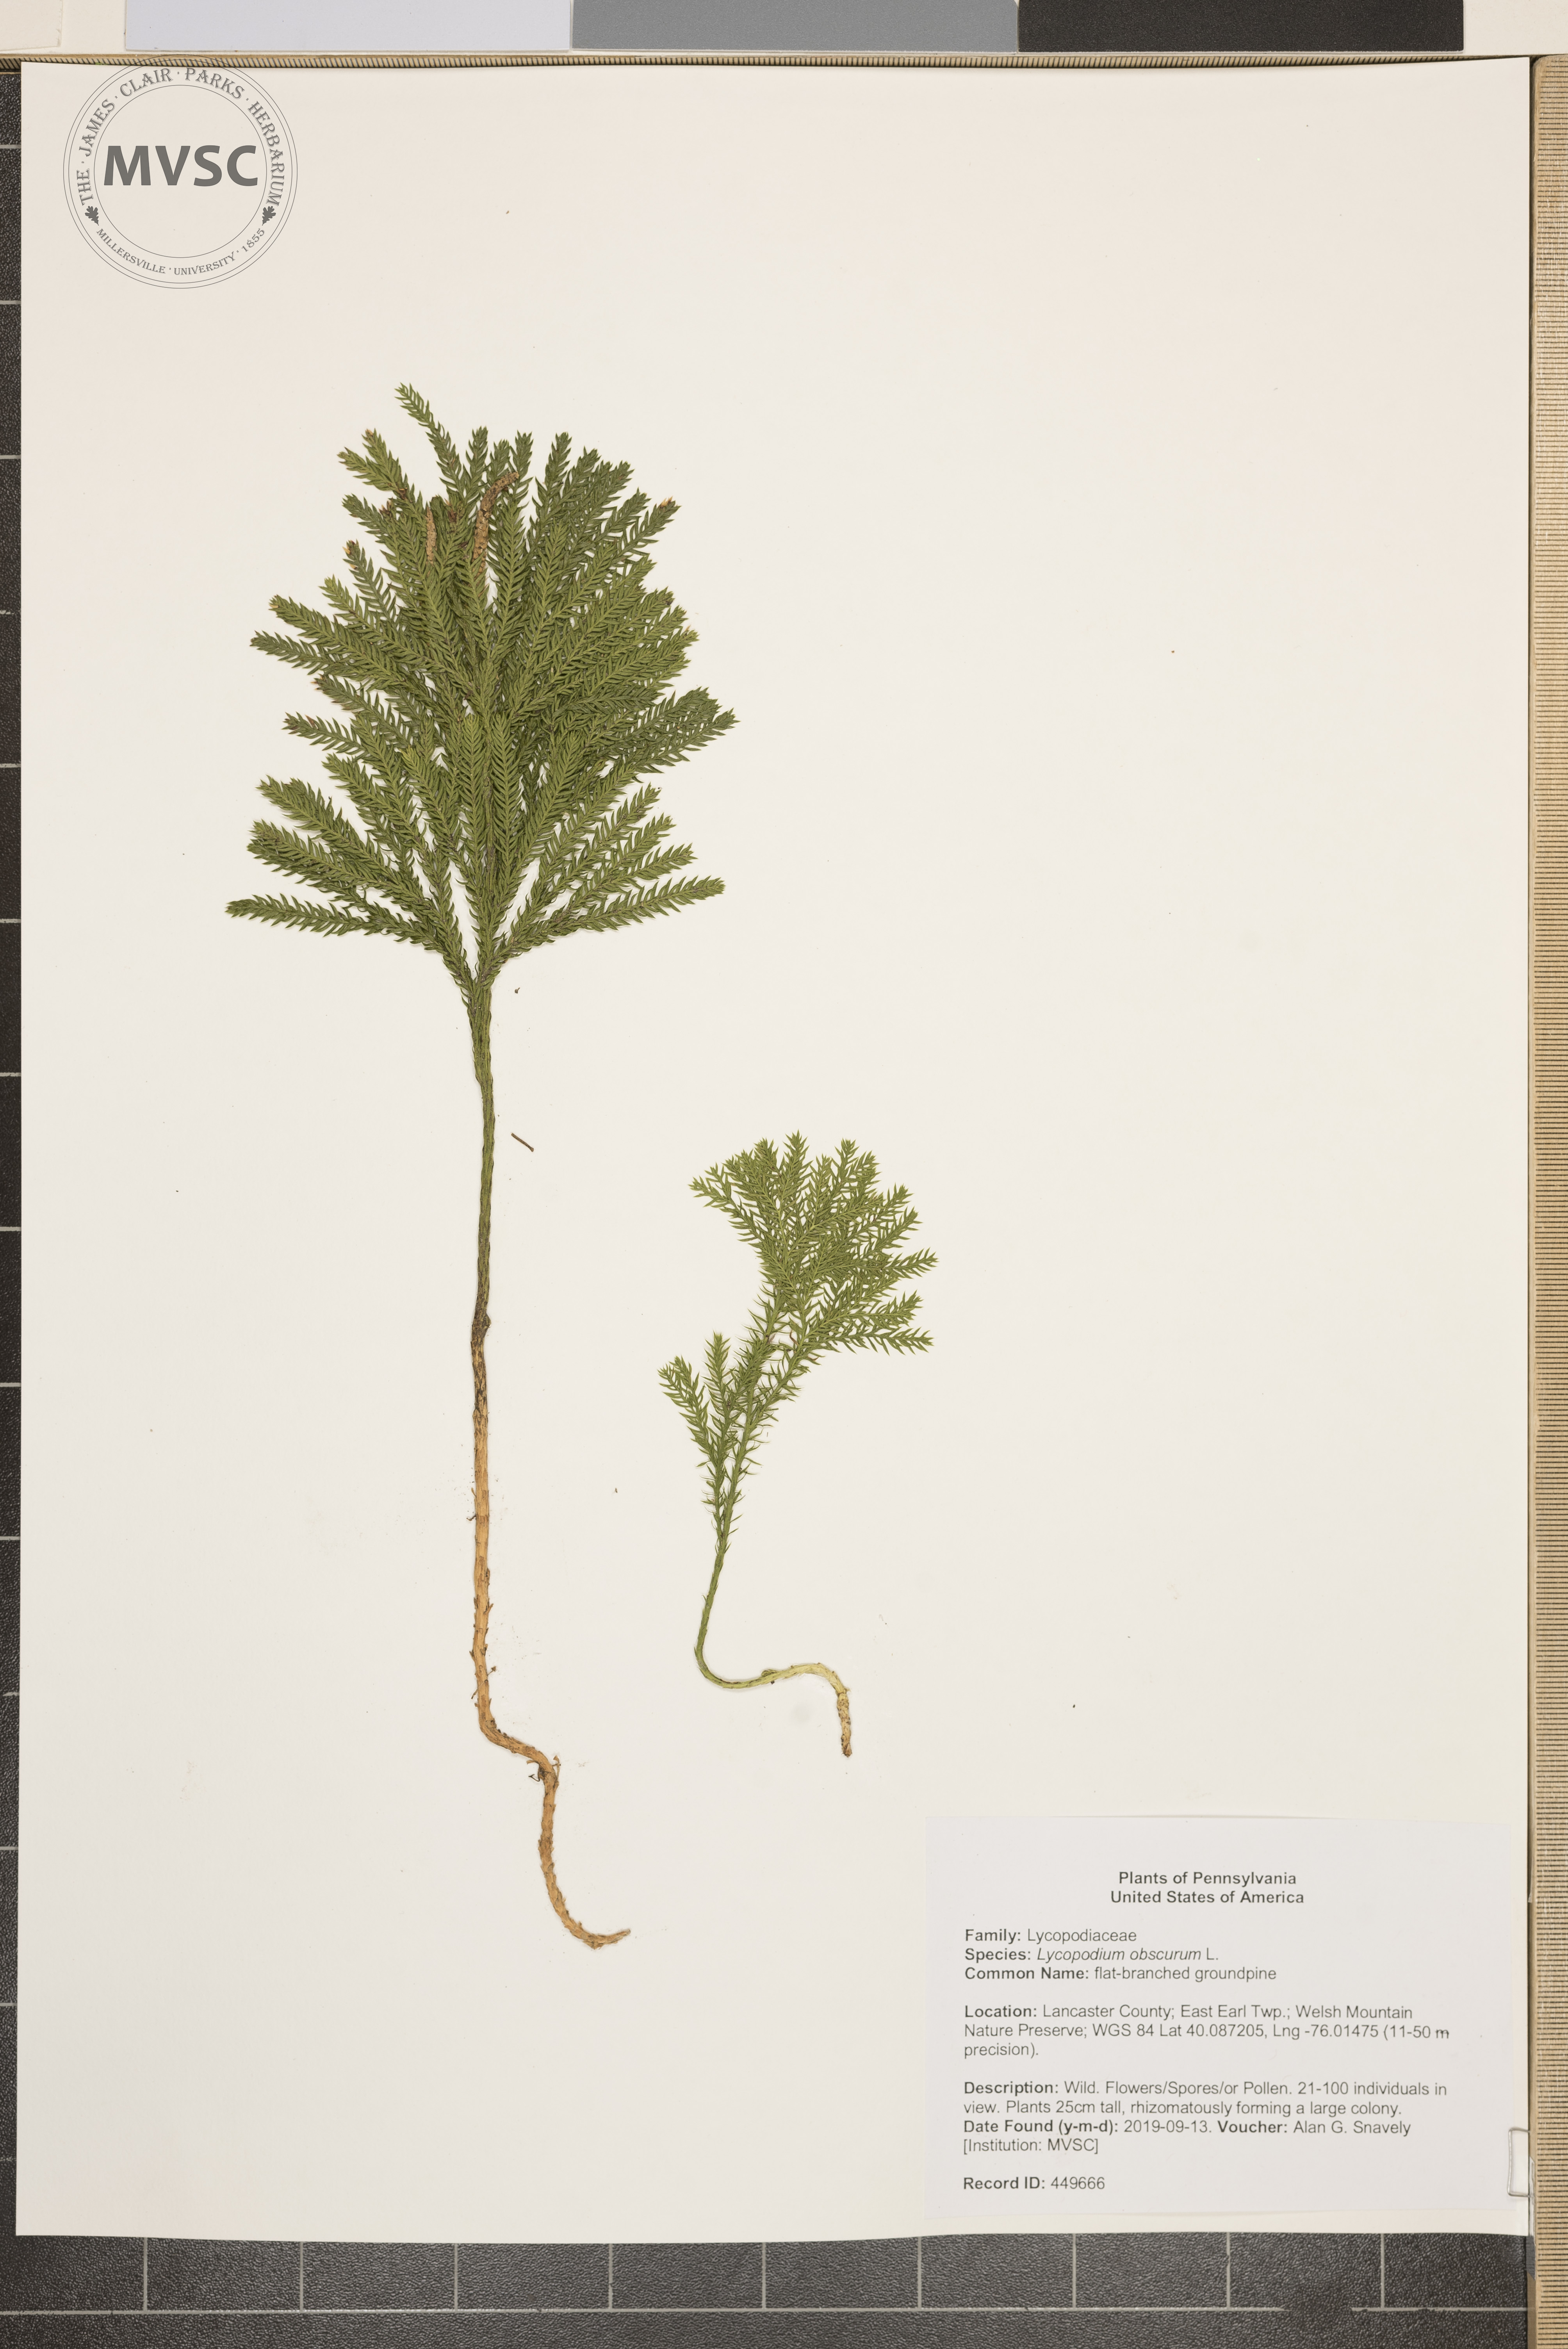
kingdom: Plantae
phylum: Tracheophyta
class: Lycopodiopsida
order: Lycopodiales
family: Lycopodiaceae
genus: Dendrolycopodium
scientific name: Dendrolycopodium obscurum
